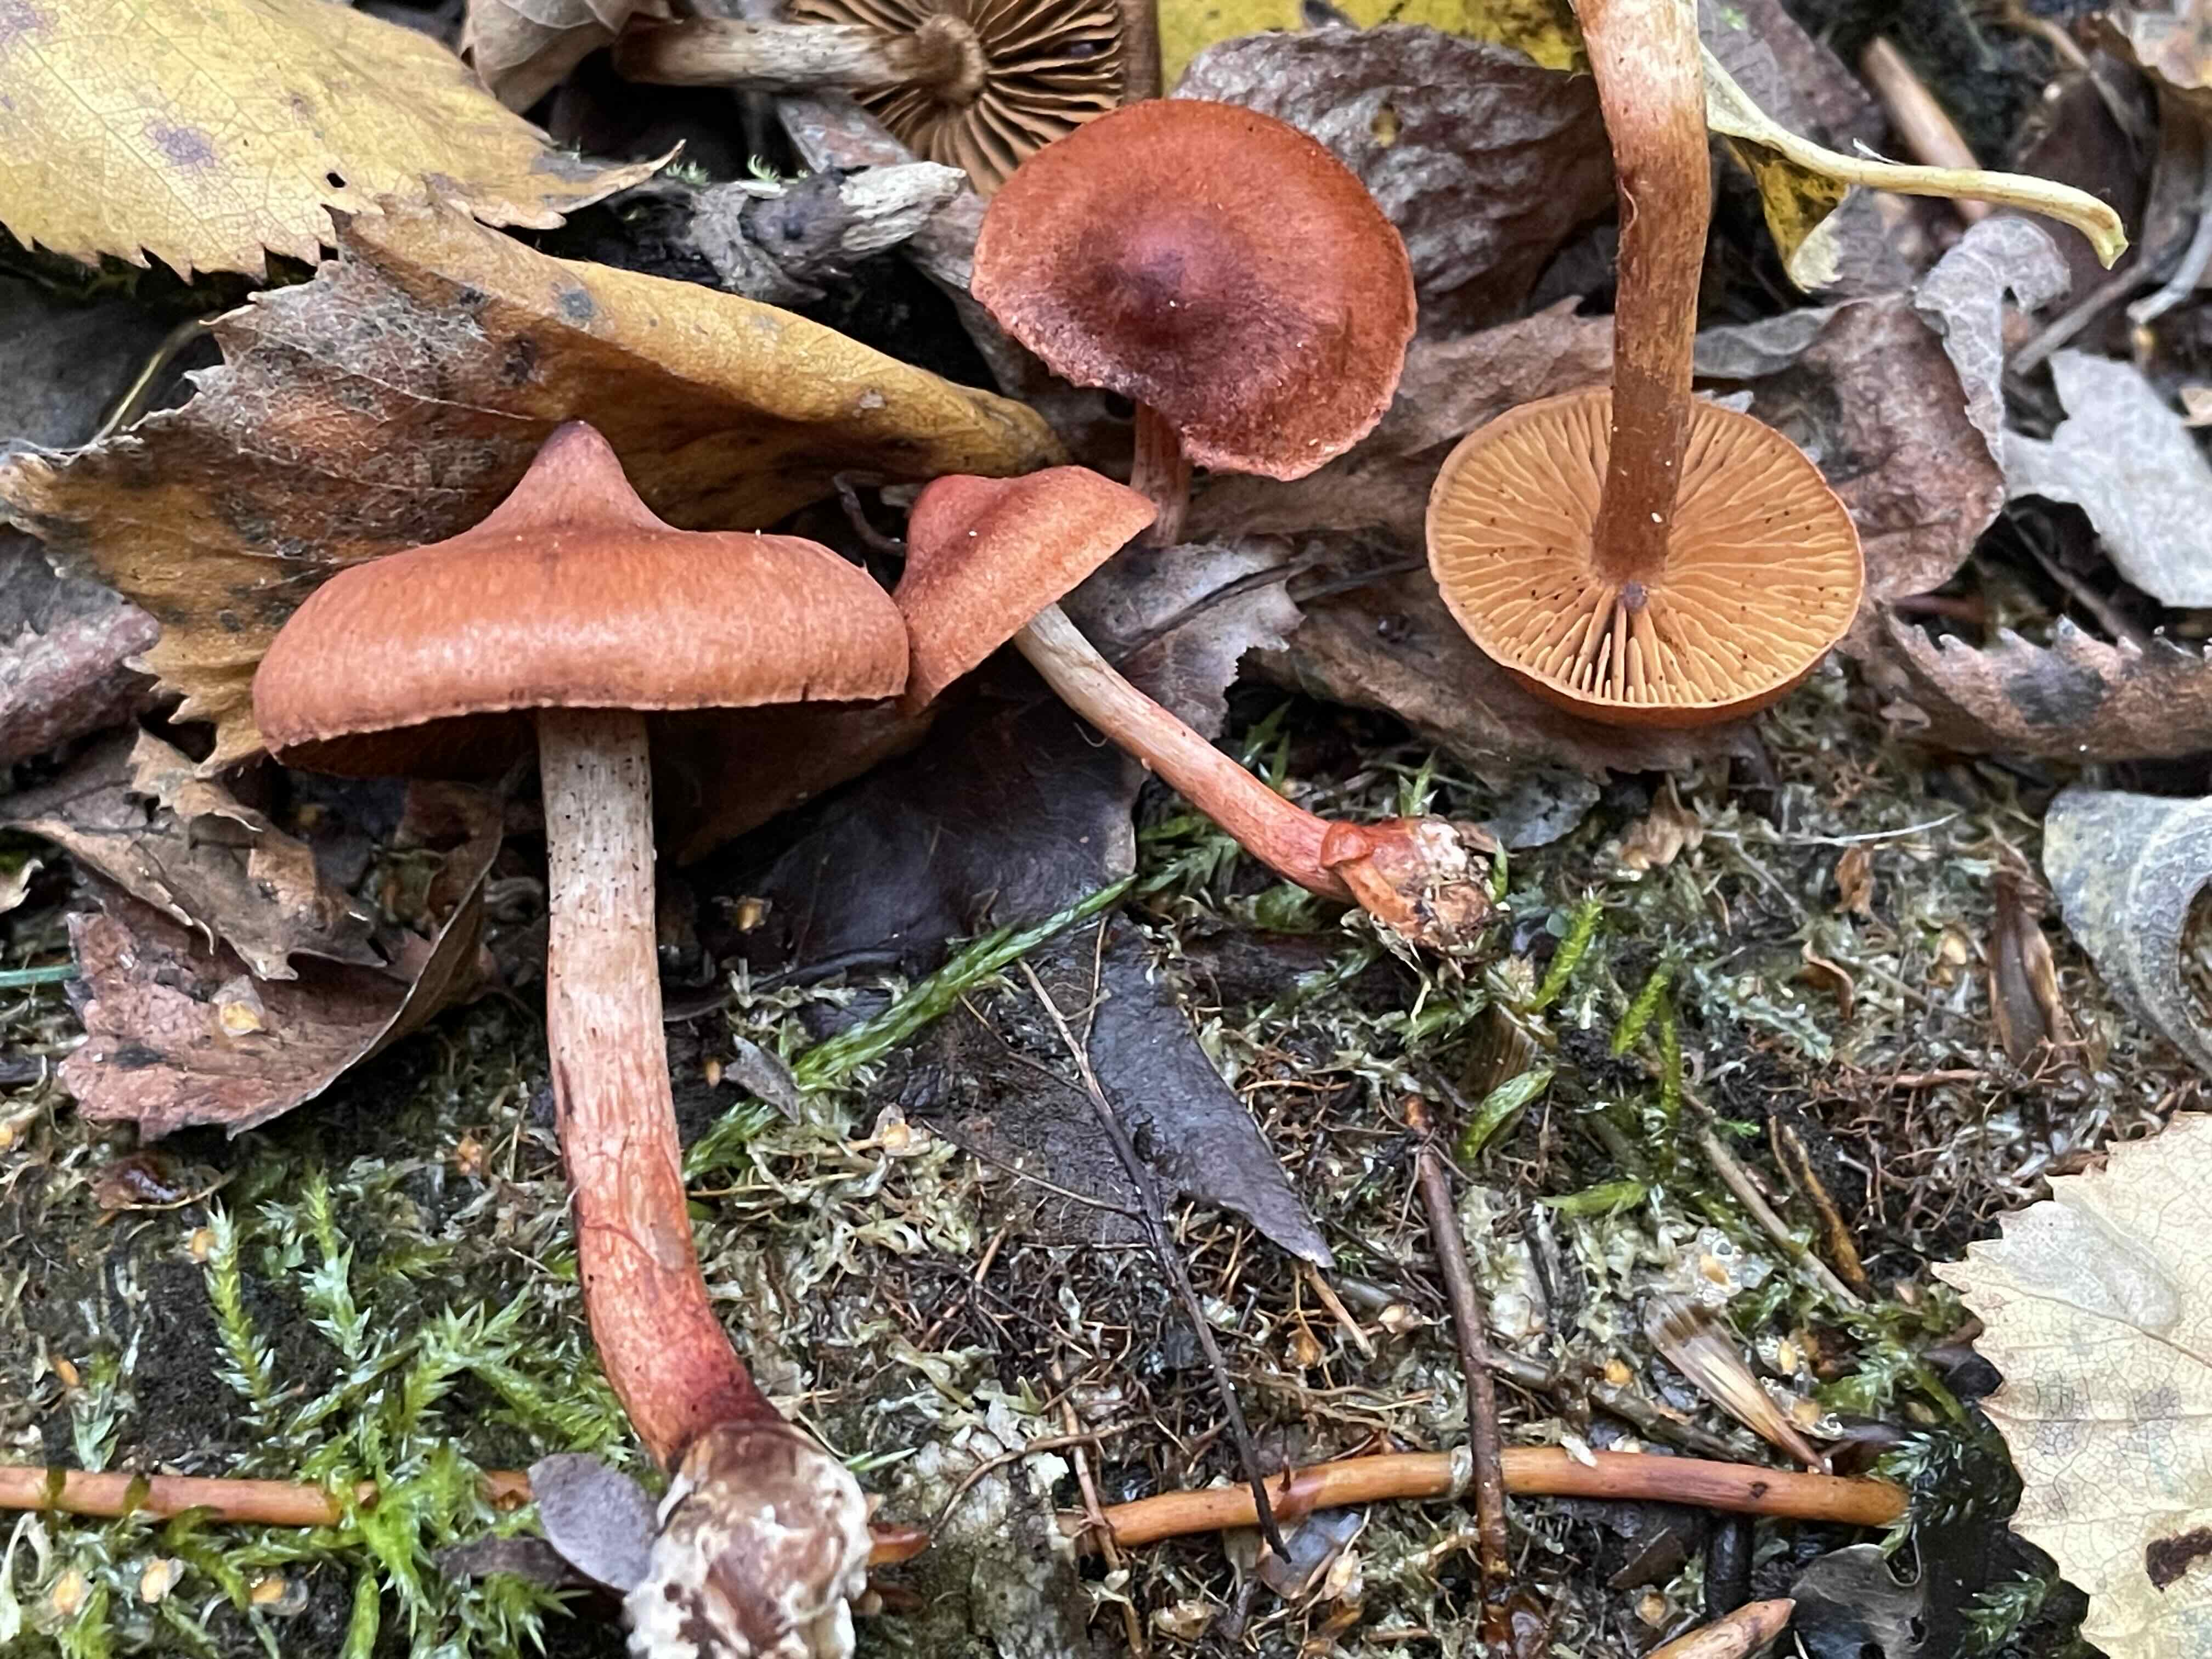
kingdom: Fungi
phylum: Basidiomycota
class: Agaricomycetes
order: Agaricales
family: Cortinariaceae
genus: Cortinarius
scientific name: Cortinarius uliginosus
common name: mose-slørhat
